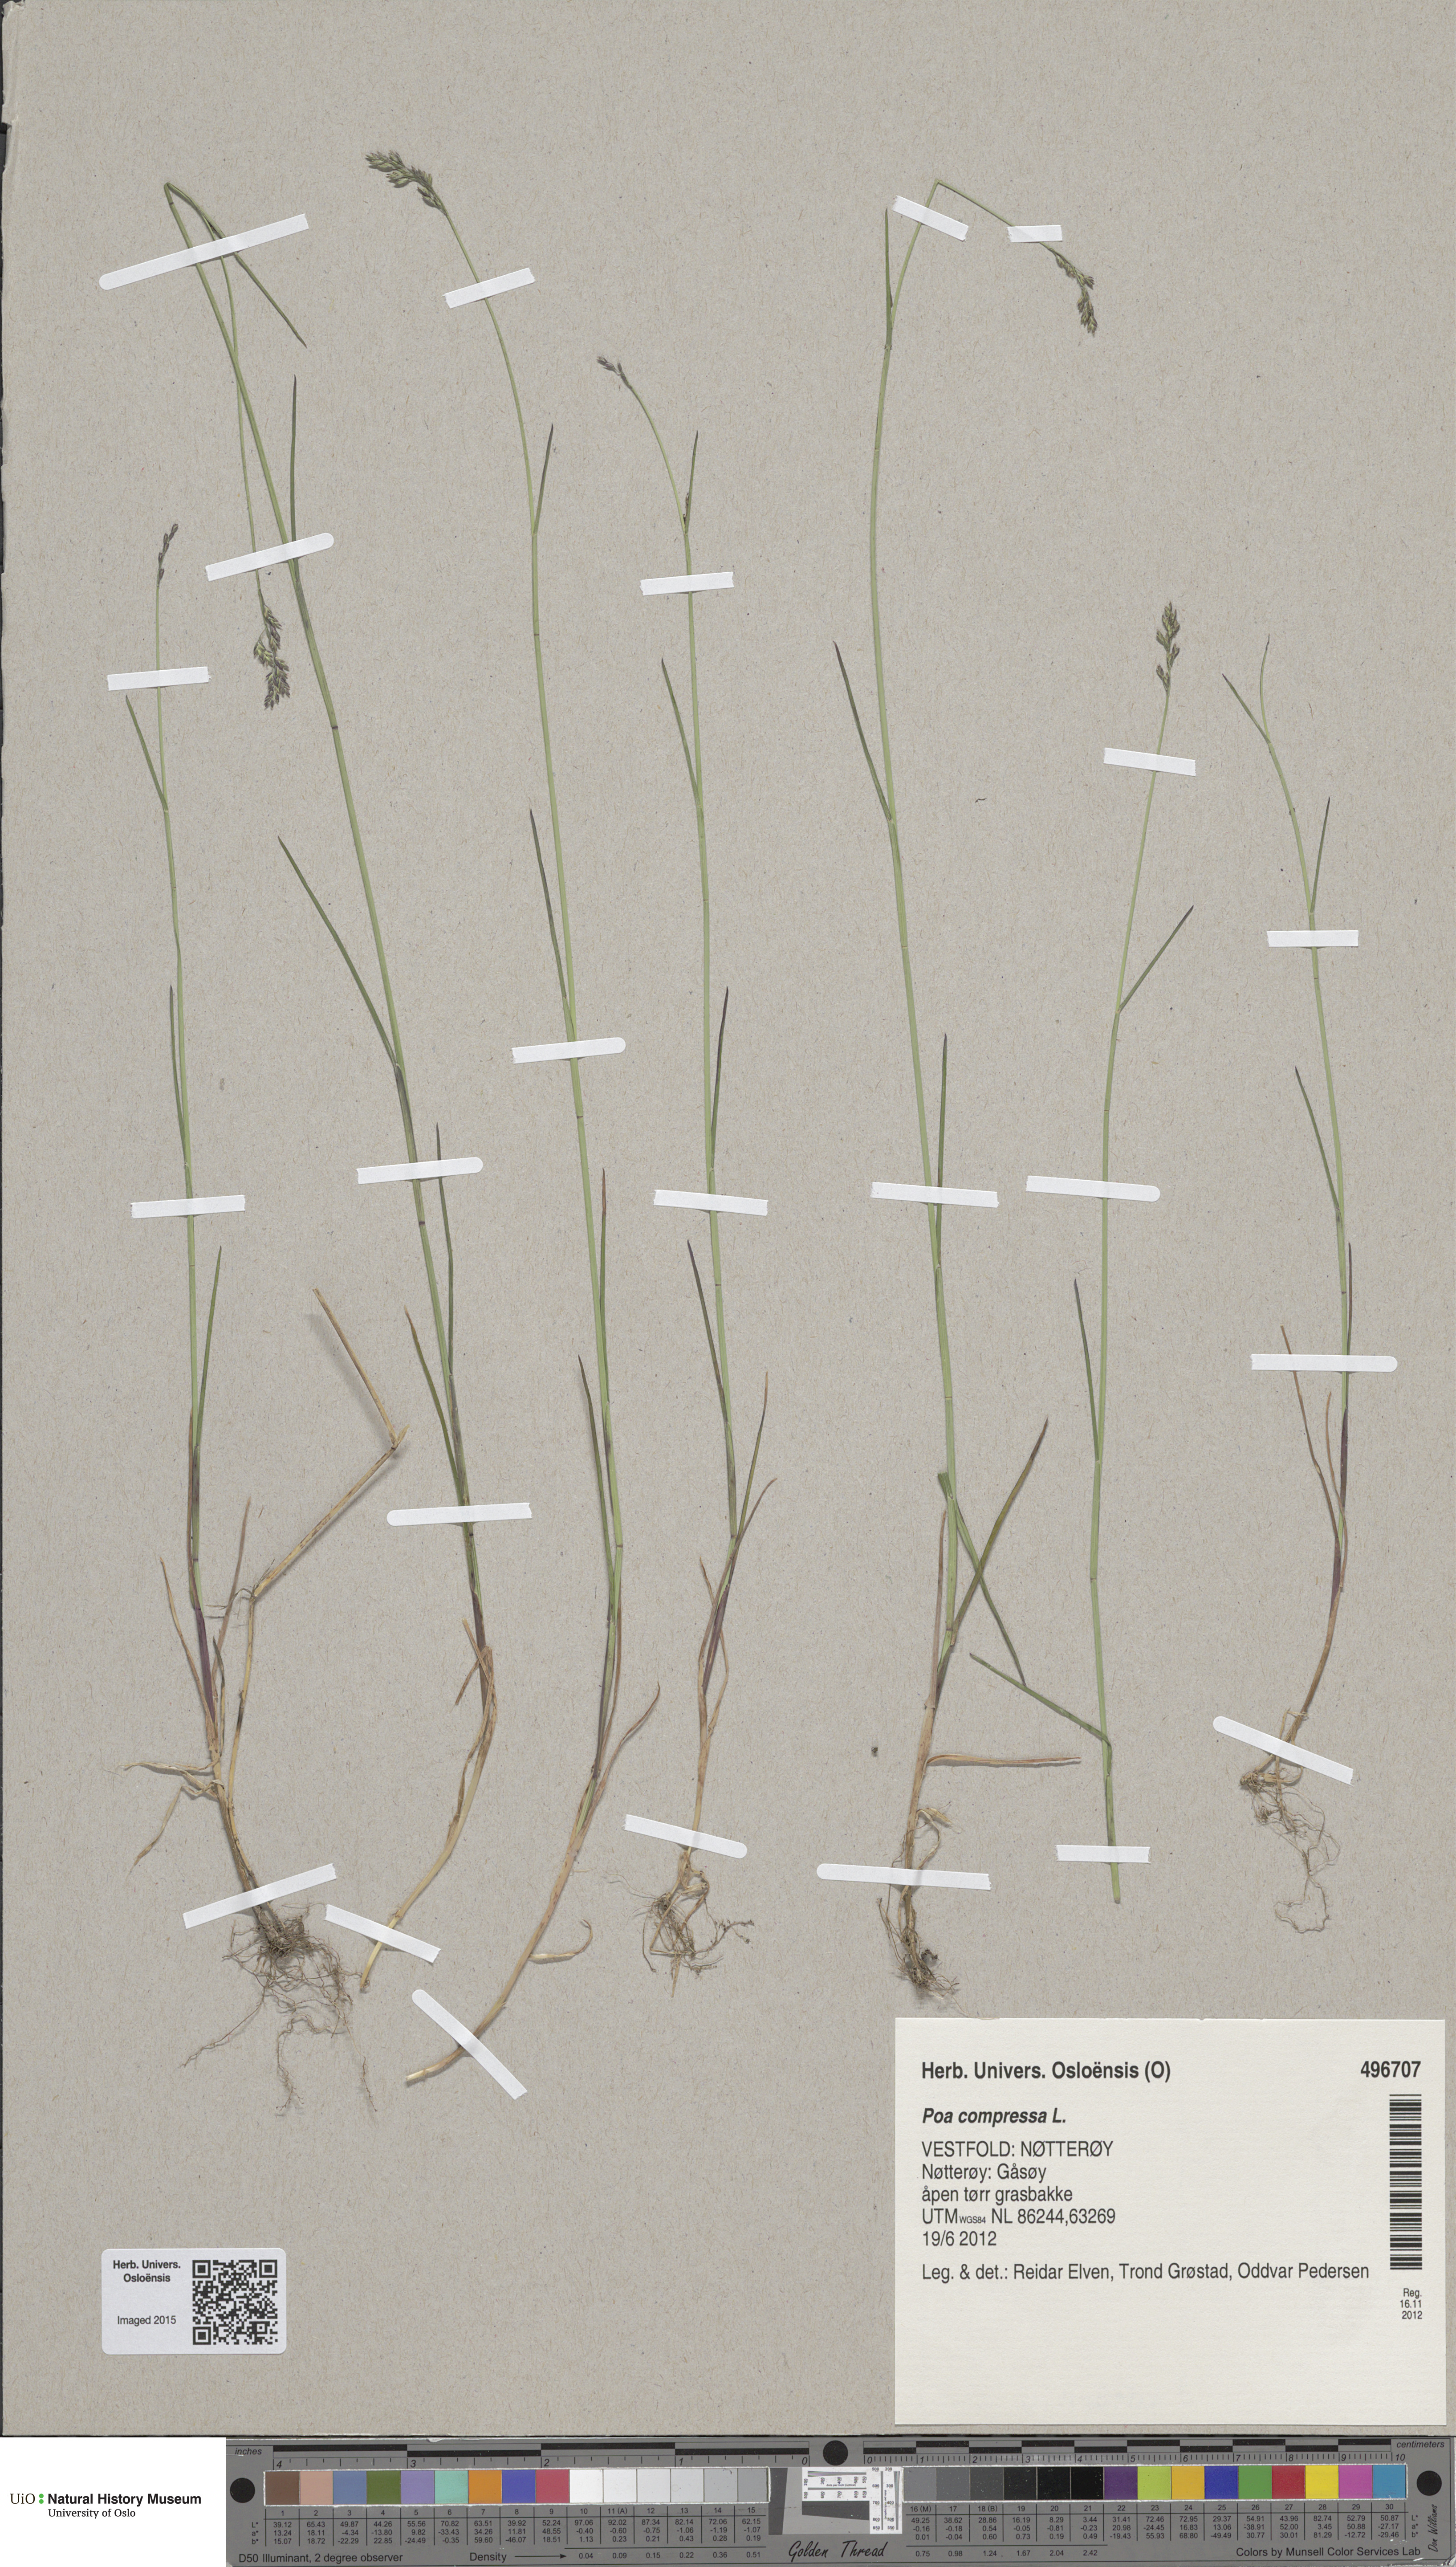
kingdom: Plantae
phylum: Tracheophyta
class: Liliopsida
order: Poales
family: Poaceae
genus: Poa
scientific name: Poa compressa
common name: Canada bluegrass
